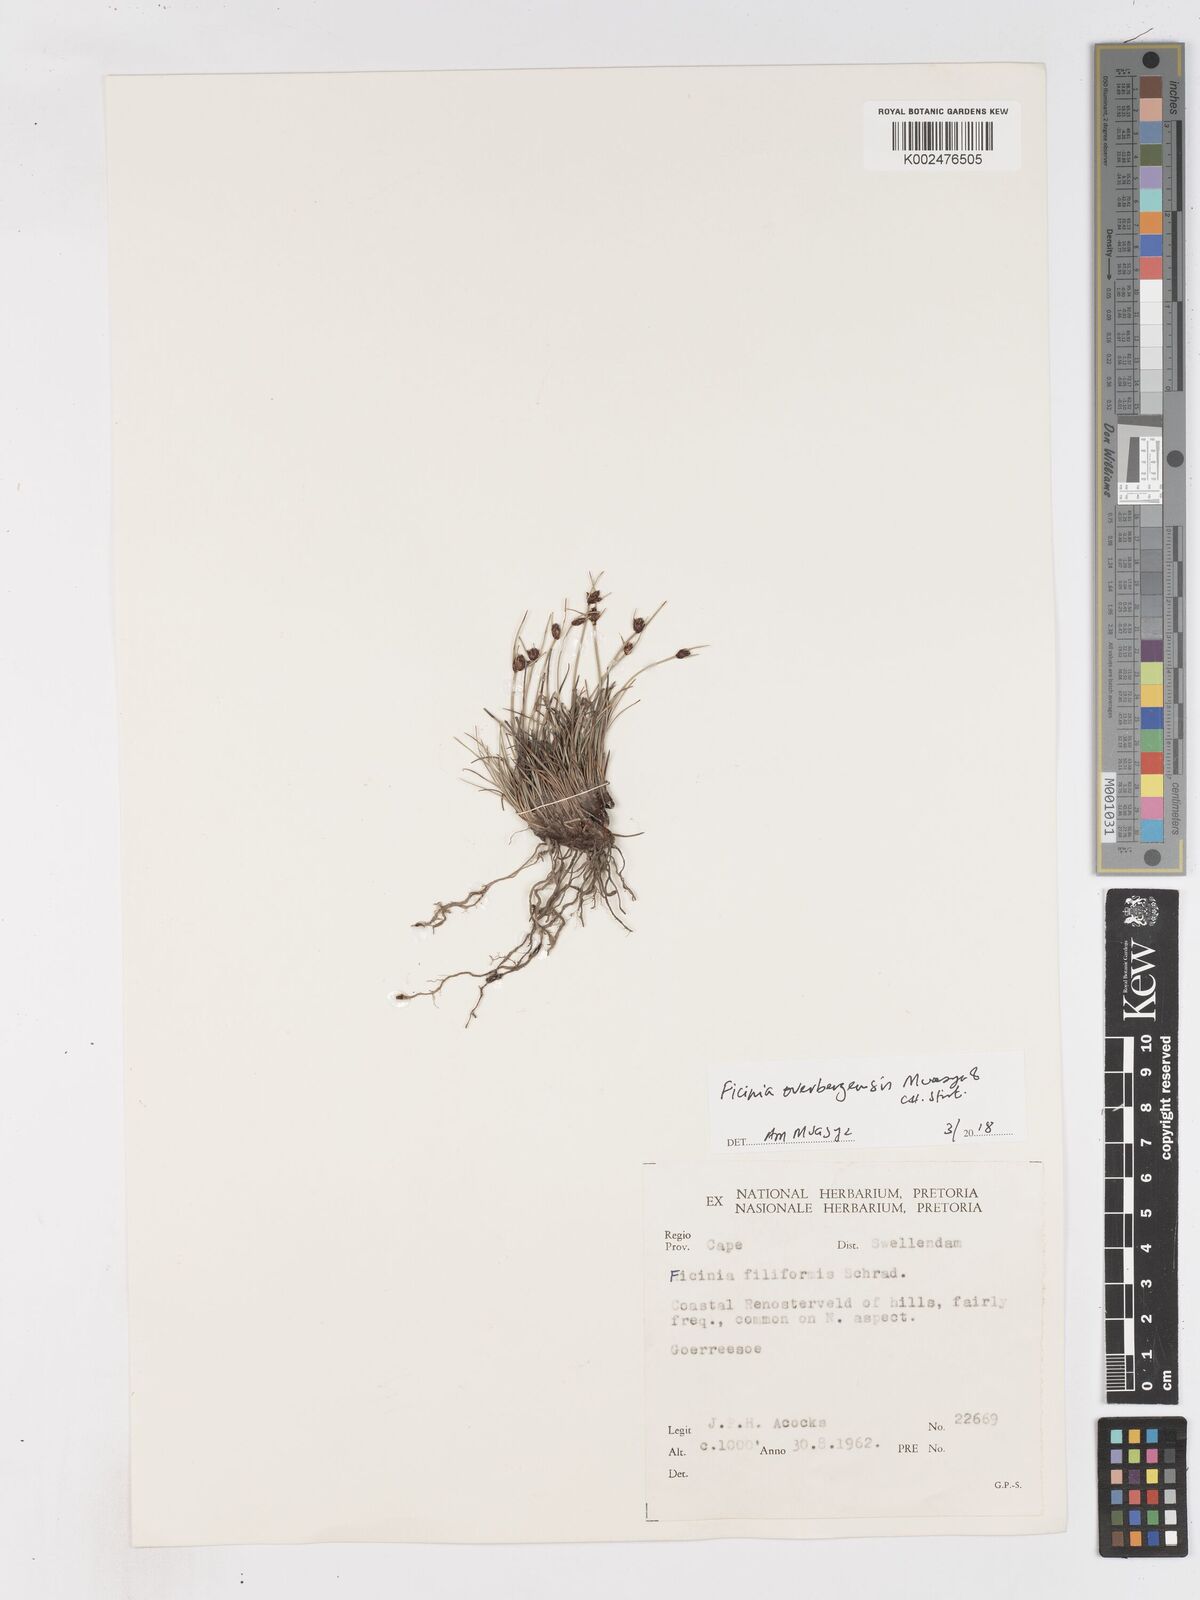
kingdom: Plantae
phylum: Tracheophyta
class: Liliopsida
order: Poales
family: Cyperaceae
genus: Ficinia
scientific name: Ficinia
